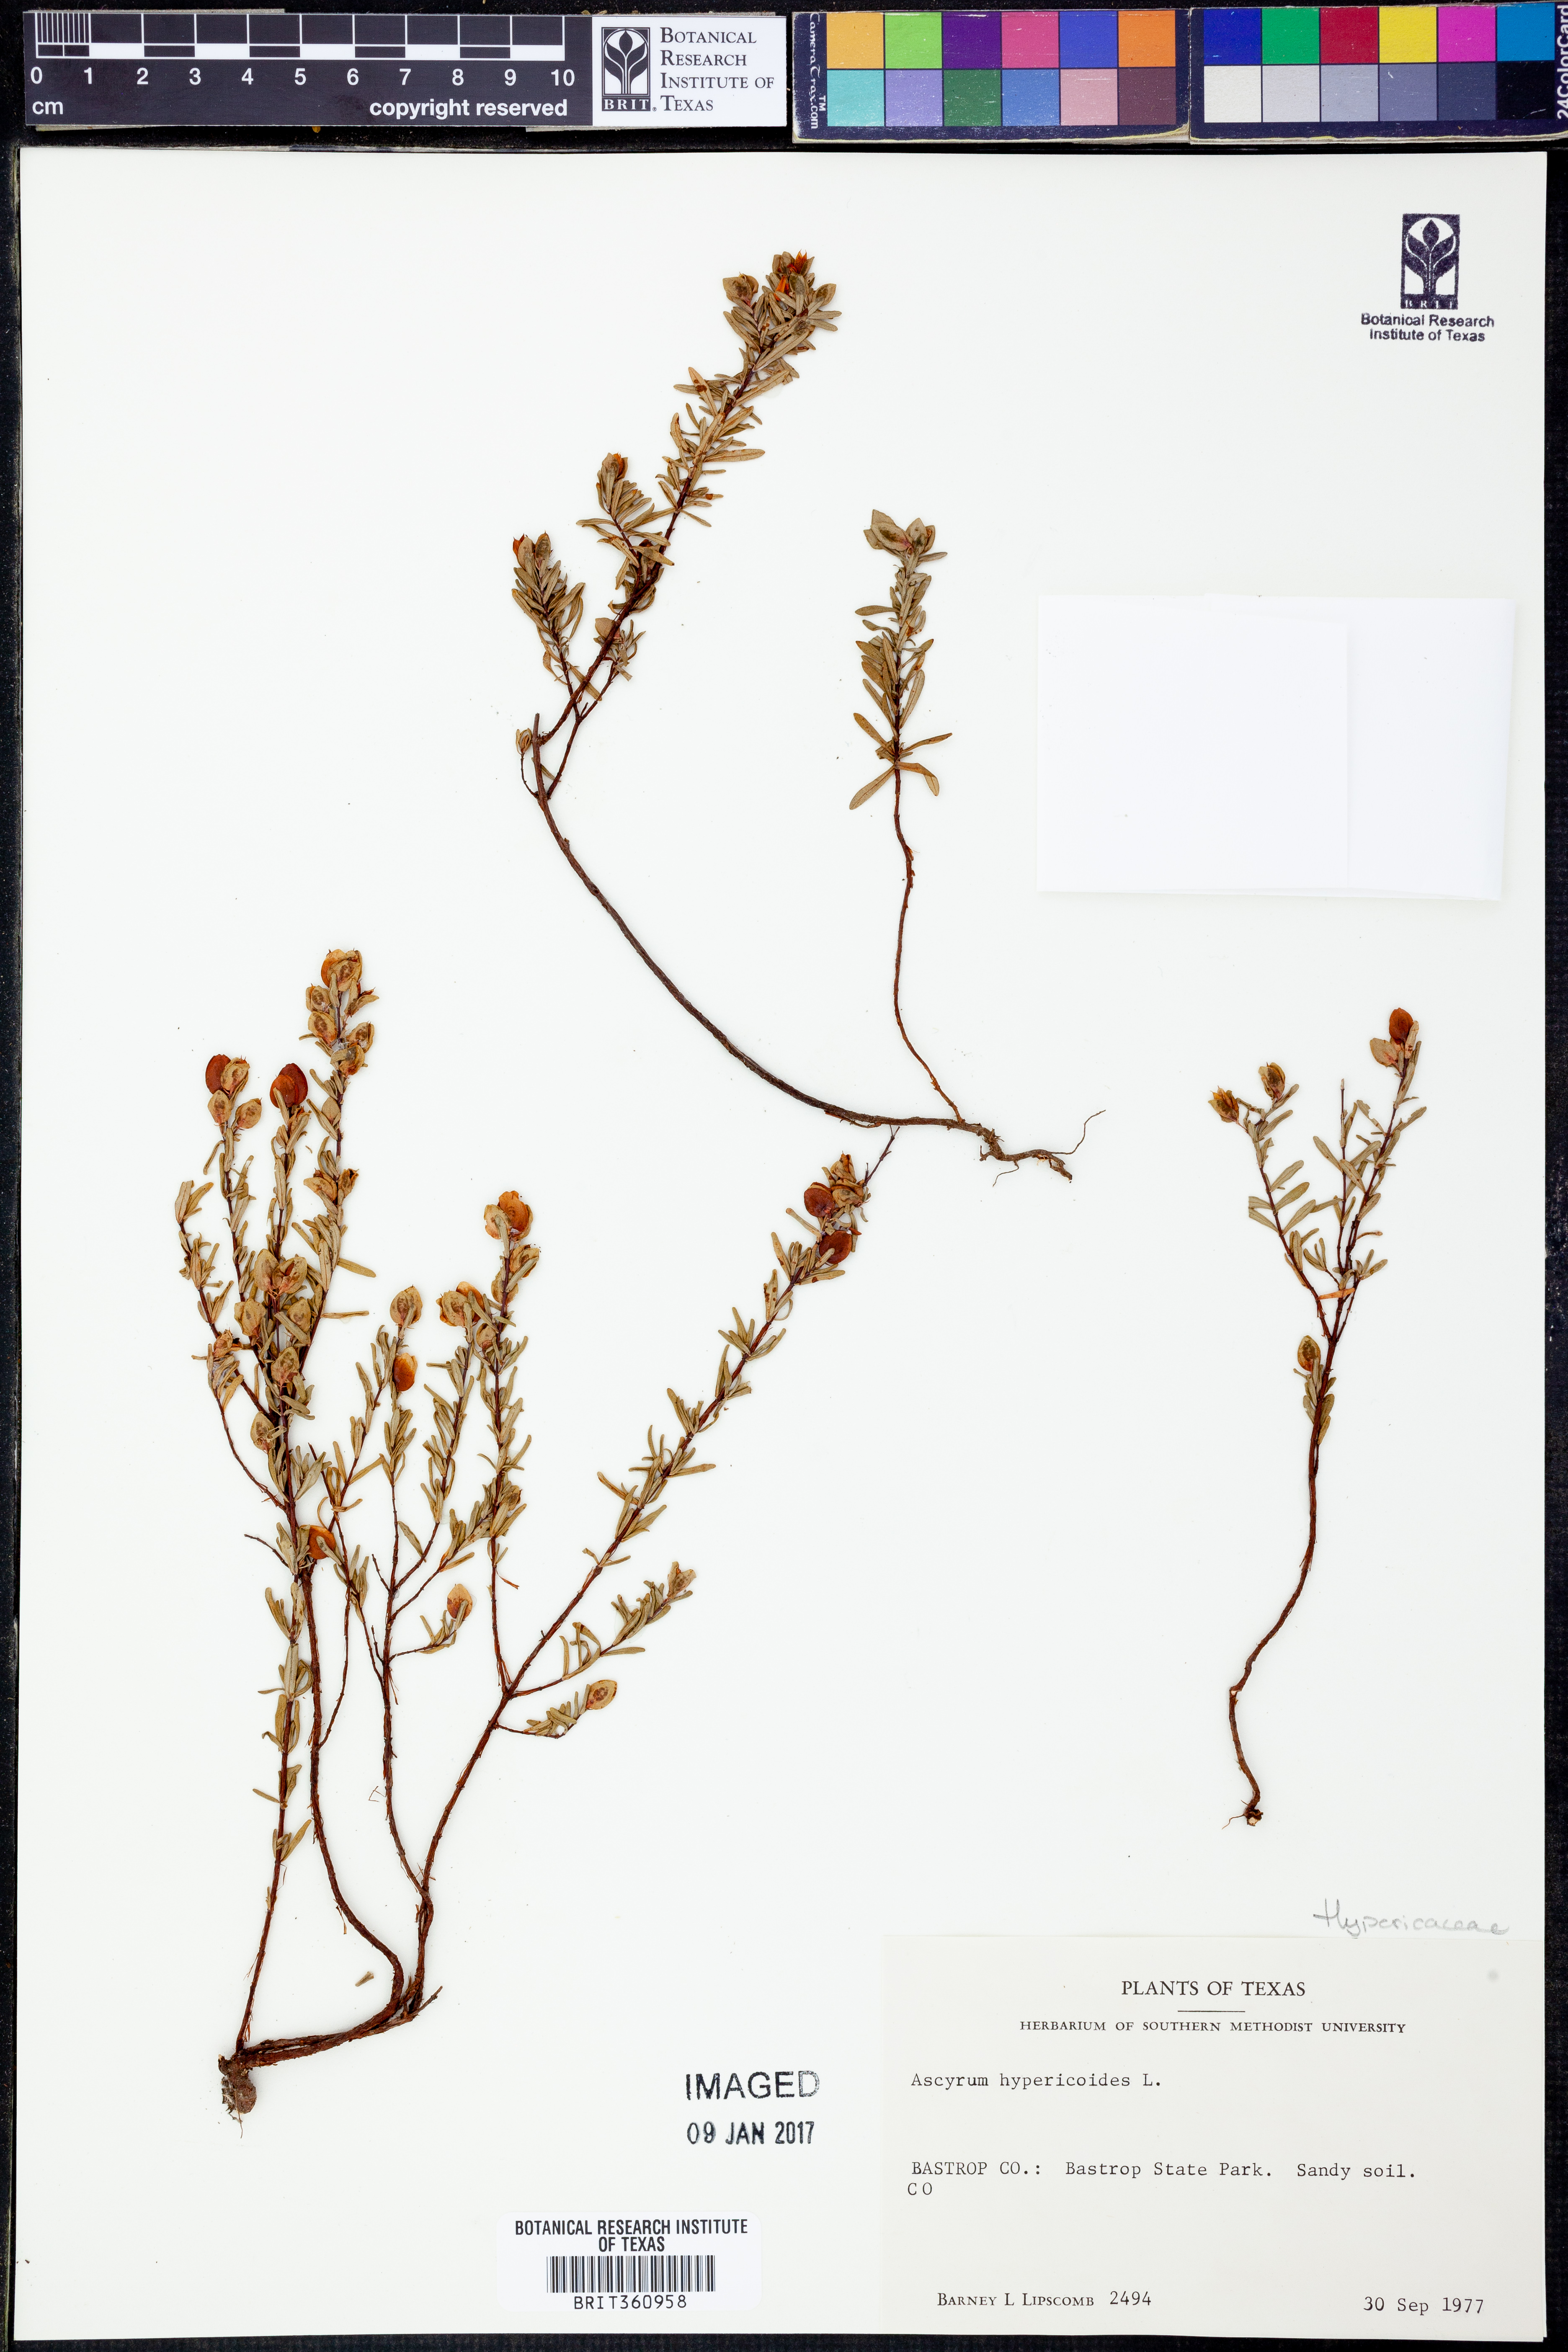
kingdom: Plantae
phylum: Tracheophyta
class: Magnoliopsida
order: Malpighiales
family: Hypericaceae
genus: Hypericum
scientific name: Hypericum hypericoides
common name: St. andrew's cross
